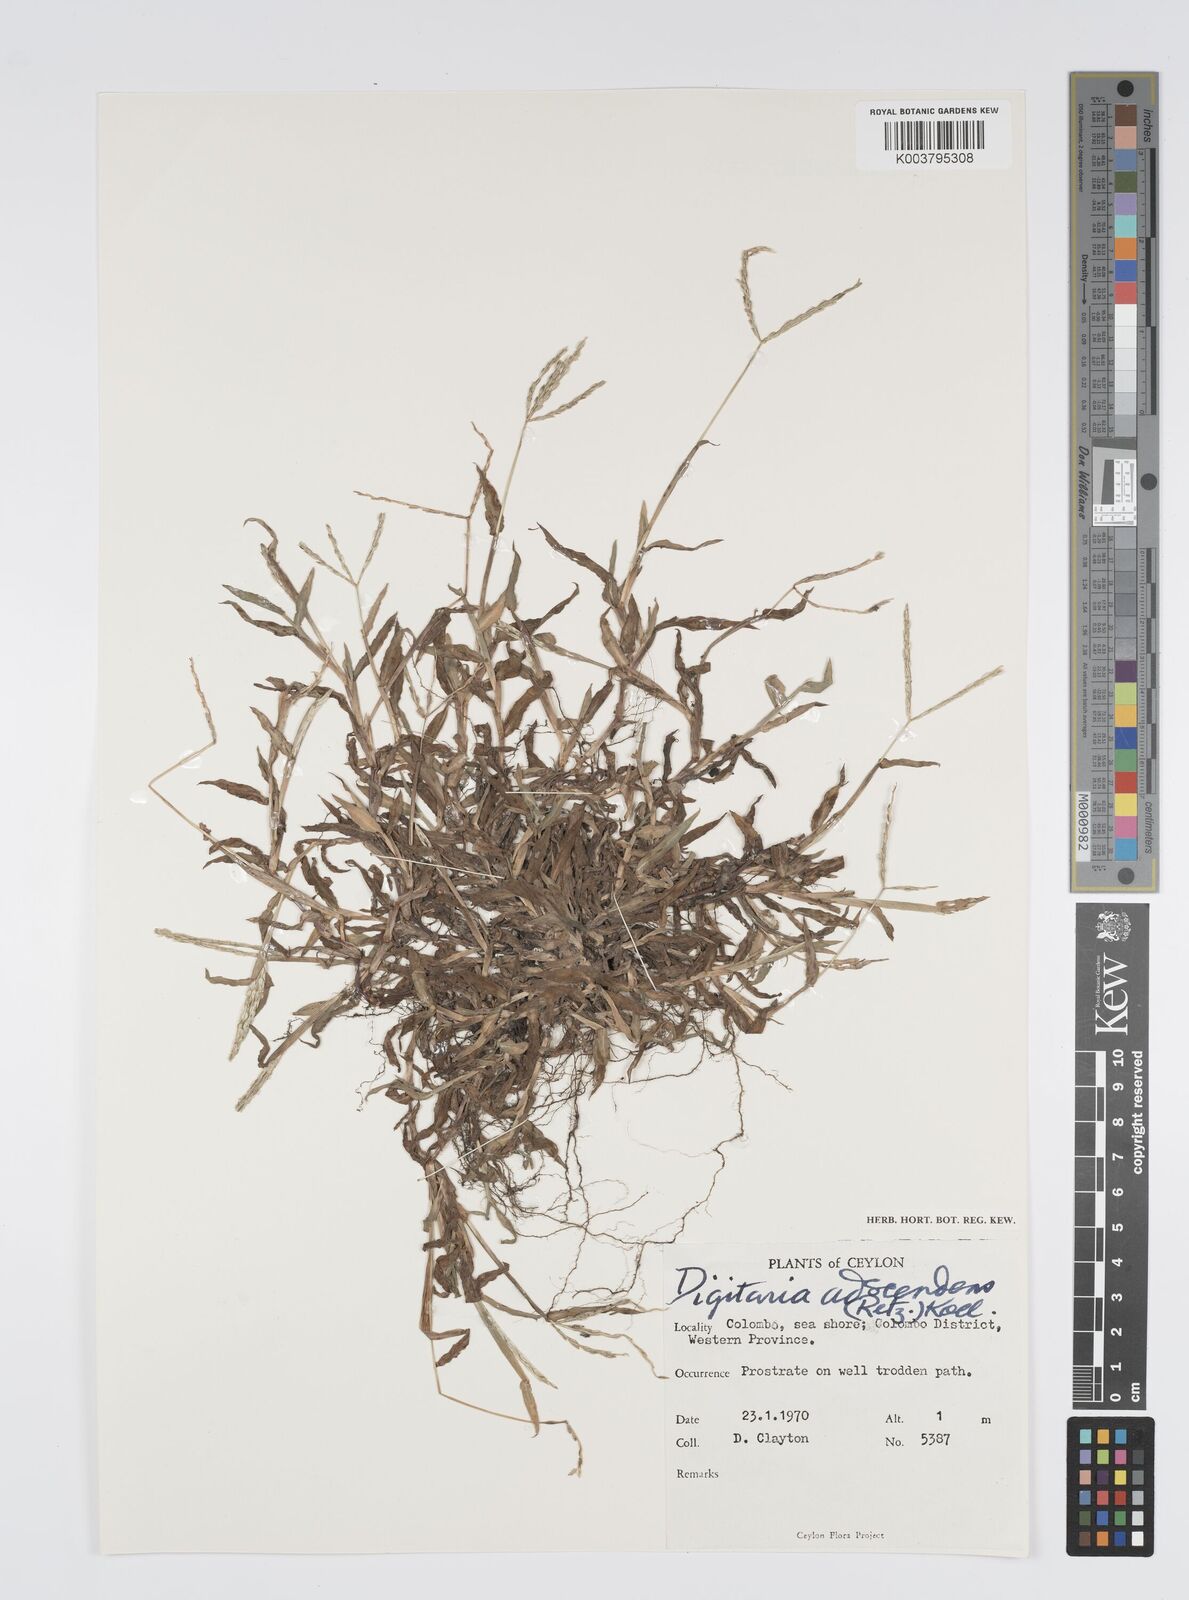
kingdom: Plantae
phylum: Tracheophyta
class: Liliopsida
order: Poales
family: Poaceae
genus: Digitaria
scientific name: Digitaria ciliaris
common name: Tropical finger-grass
